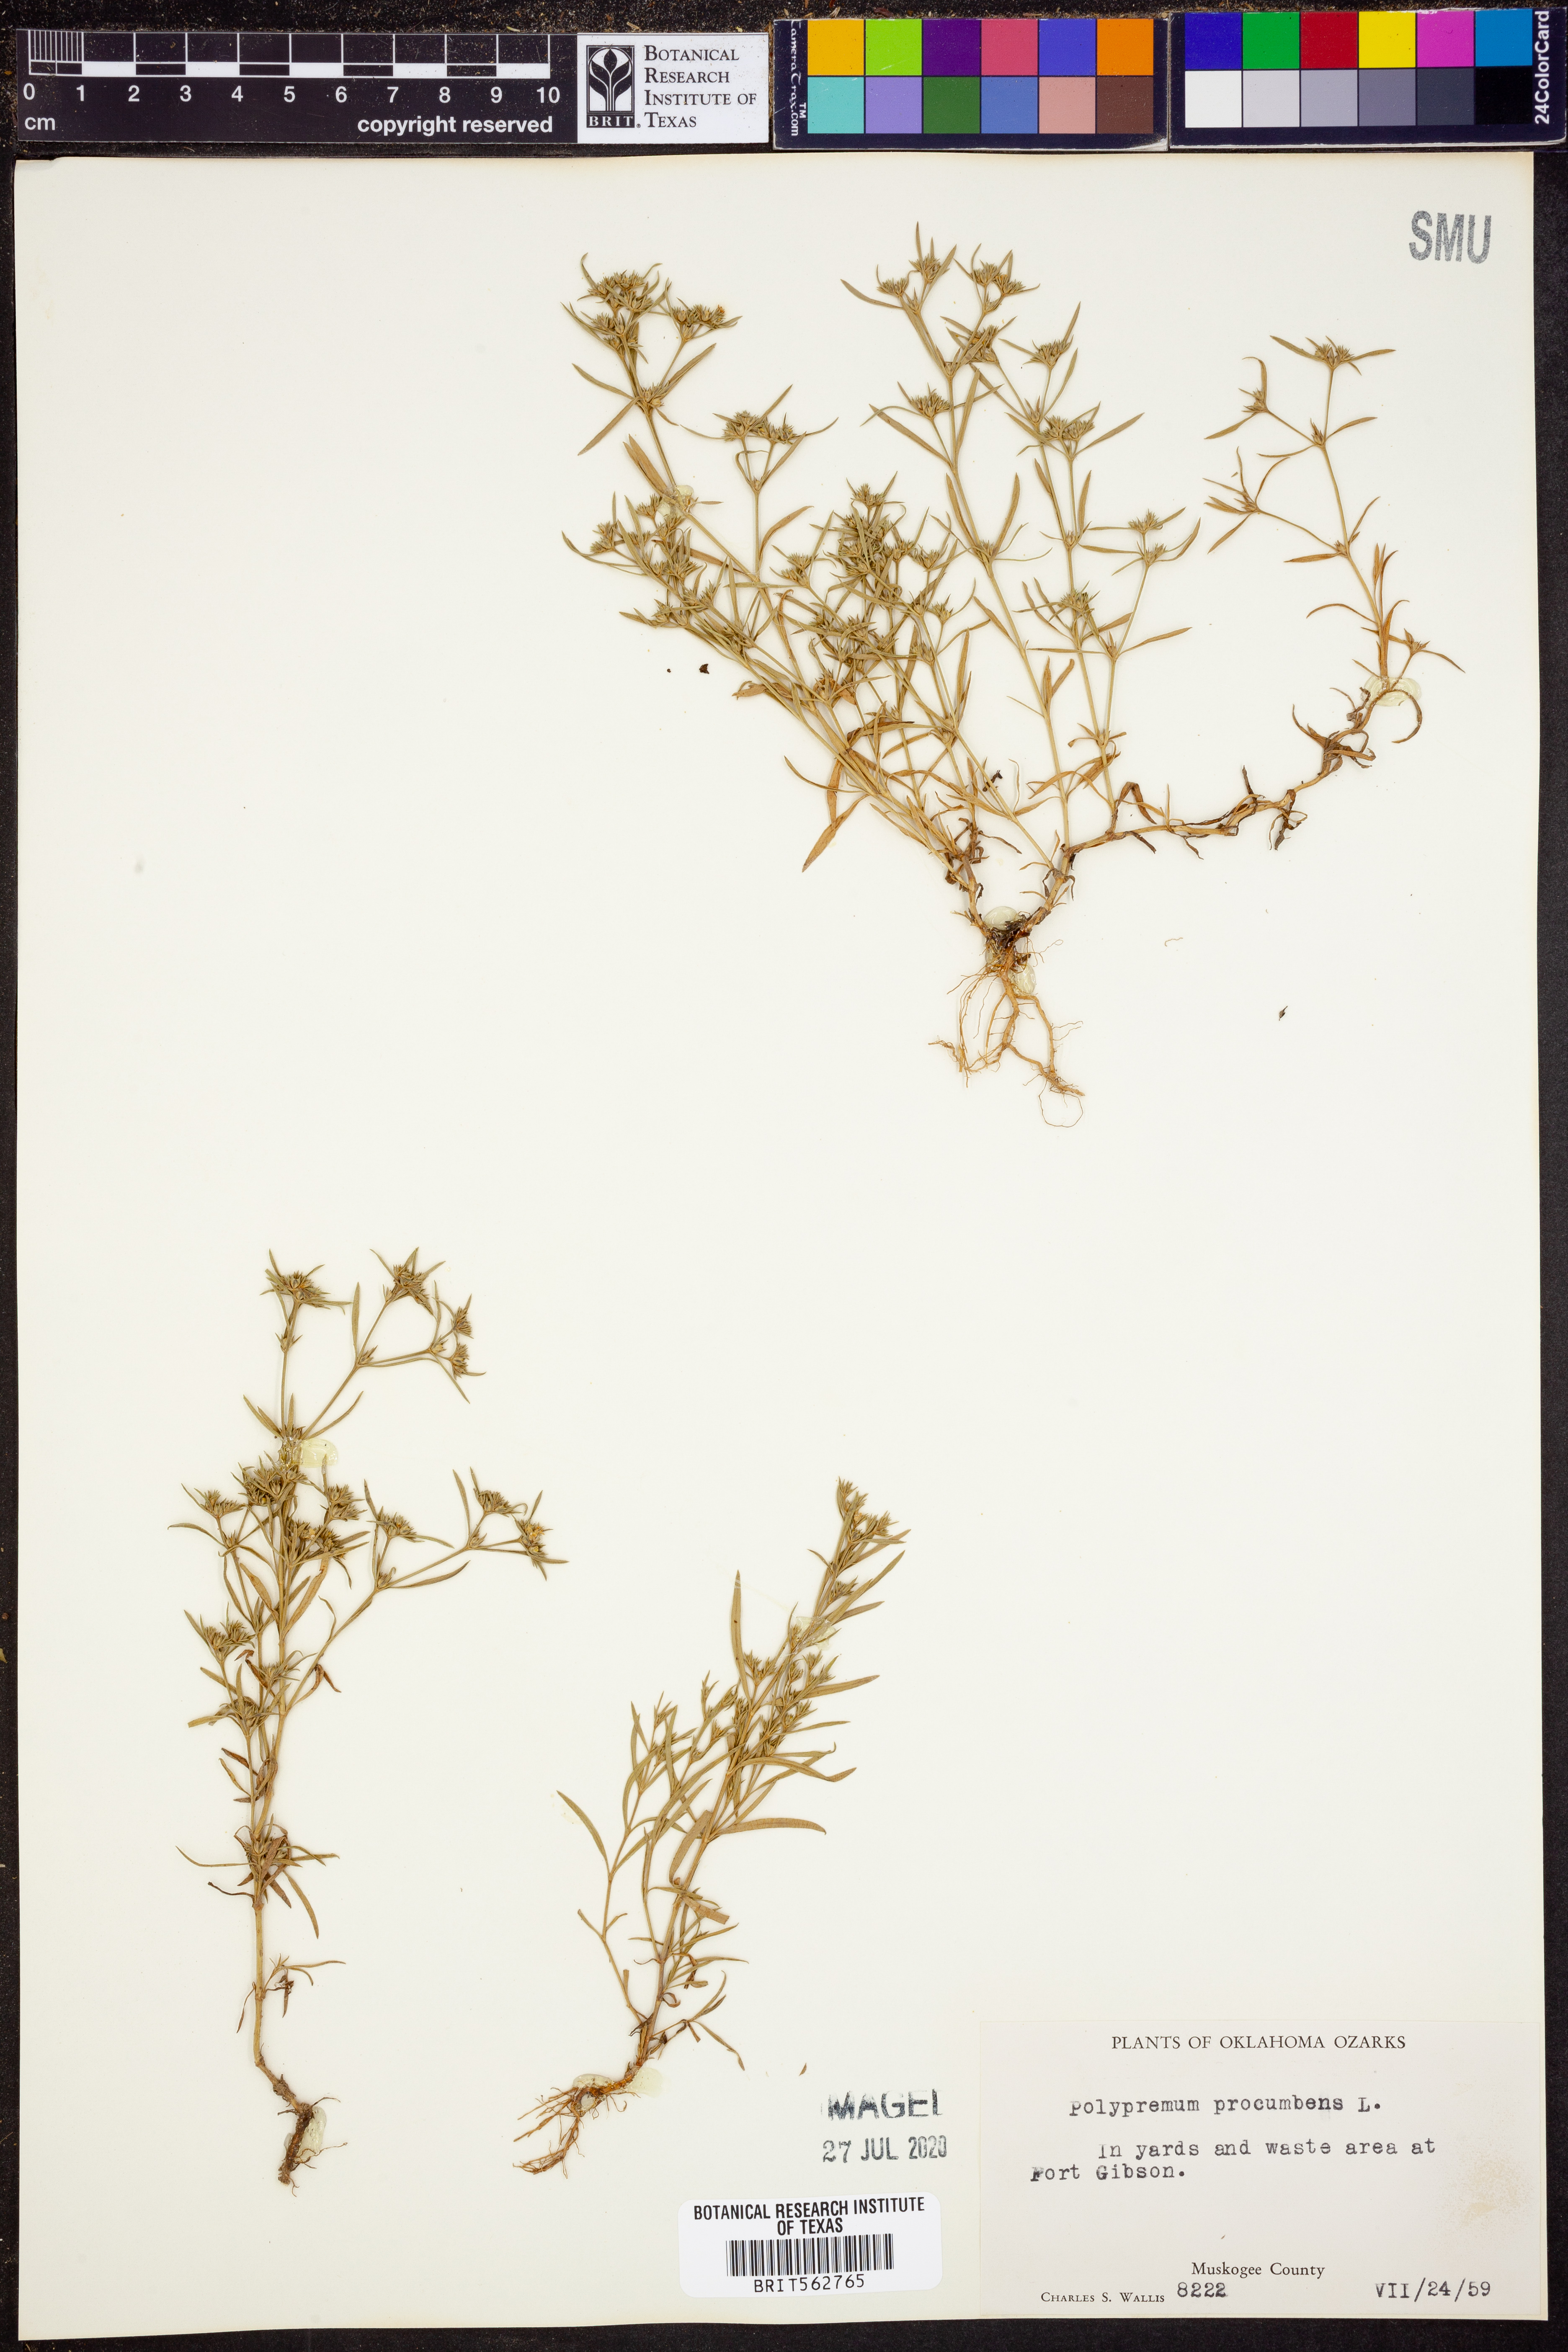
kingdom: Plantae
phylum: Tracheophyta
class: Magnoliopsida
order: Lamiales
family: Tetrachondraceae
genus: Polypremum
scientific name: Polypremum procumbens
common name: Juniper-leaf
